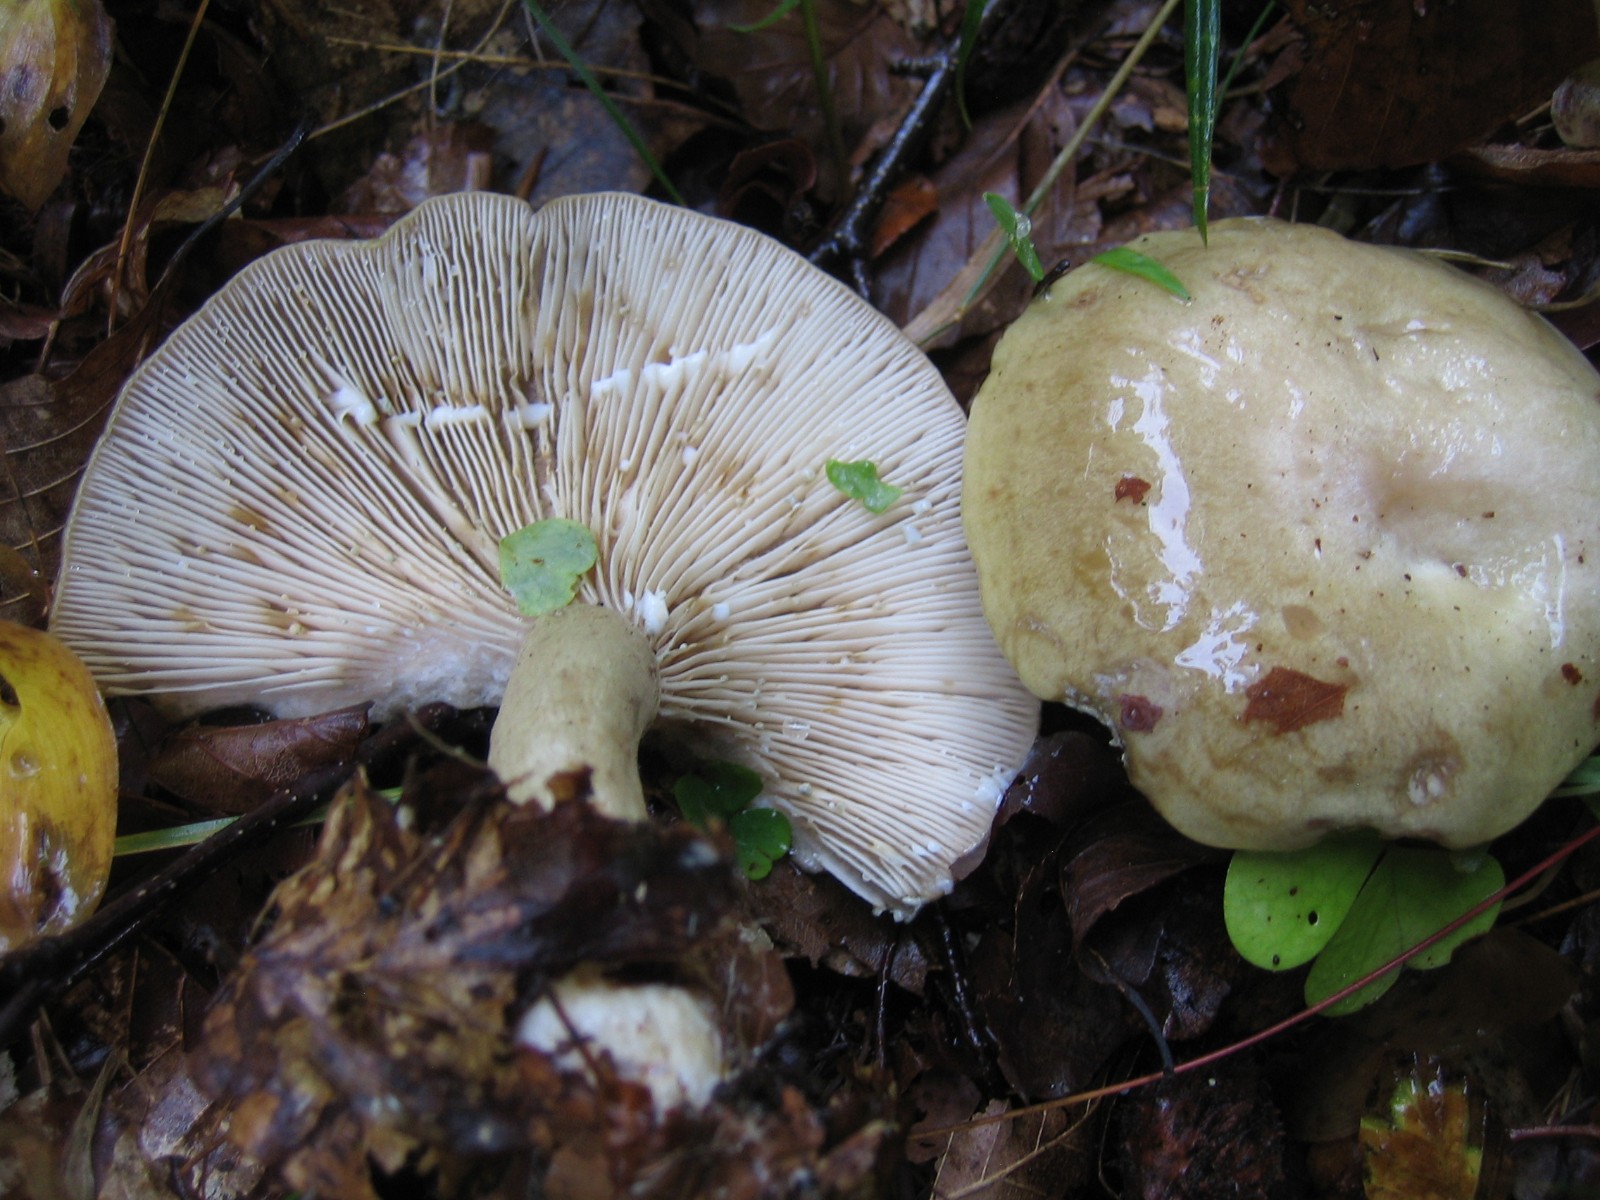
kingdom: Fungi
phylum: Basidiomycota
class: Agaricomycetes
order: Russulales
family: Russulaceae
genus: Lactarius
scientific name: Lactarius blennius
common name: dråbeplettet mælkehat
